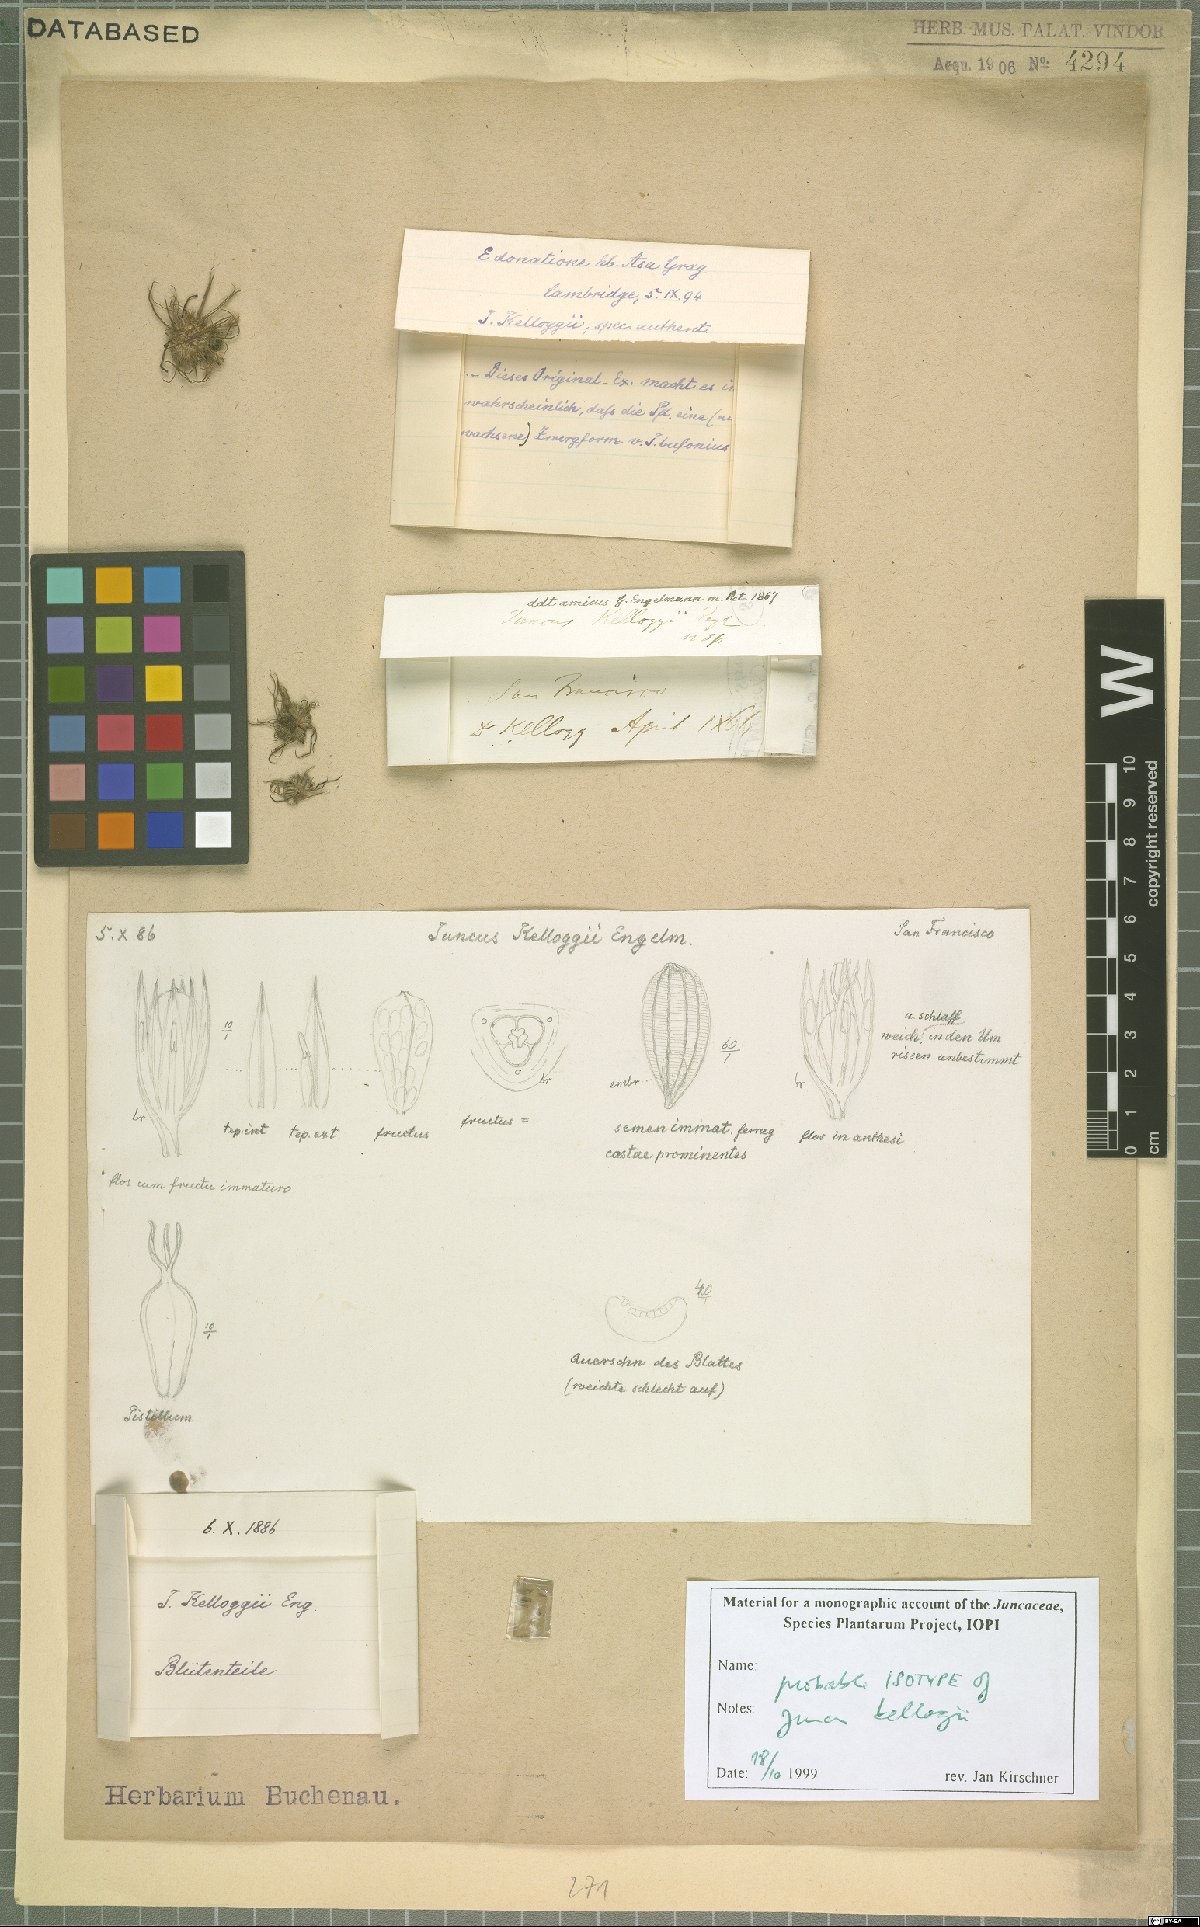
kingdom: Plantae
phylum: Tracheophyta
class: Liliopsida
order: Poales
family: Juncaceae
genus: Juncus
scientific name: Juncus kelloggii
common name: Kellogg's dwarf rush
